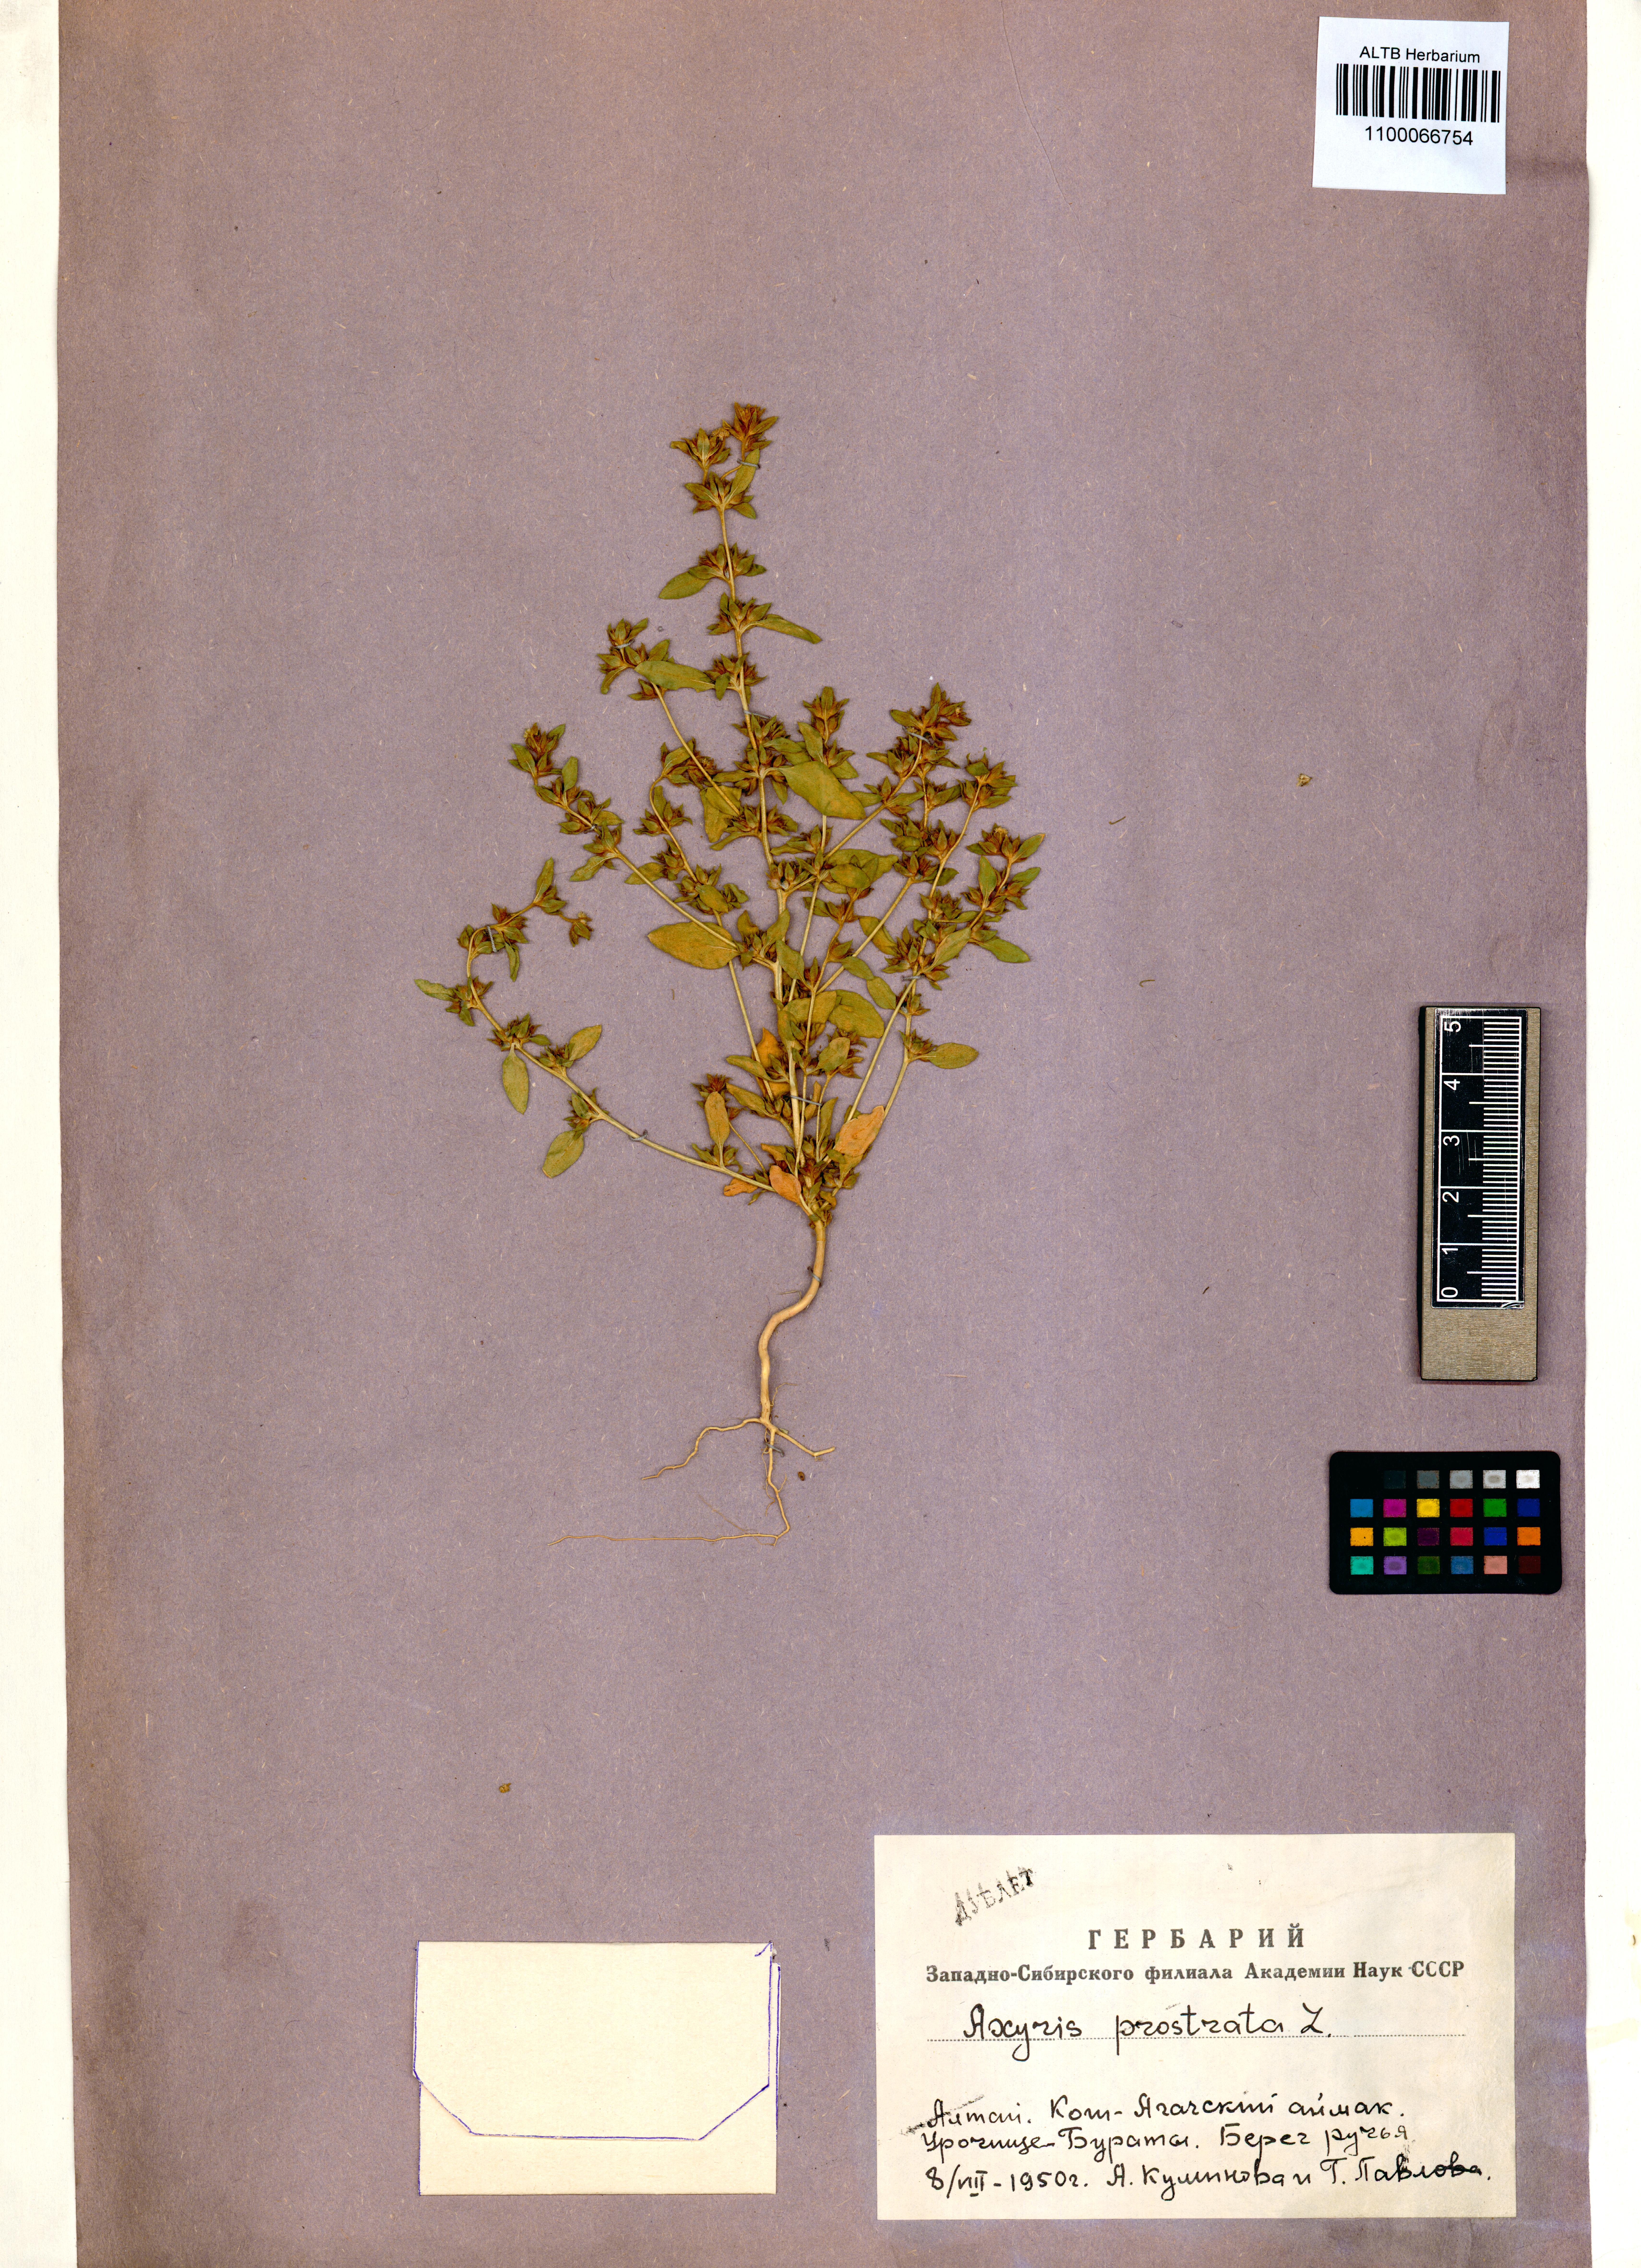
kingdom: Plantae
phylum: Tracheophyta
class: Magnoliopsida
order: Caryophyllales
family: Amaranthaceae
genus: Axyris
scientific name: Axyris prostrata
